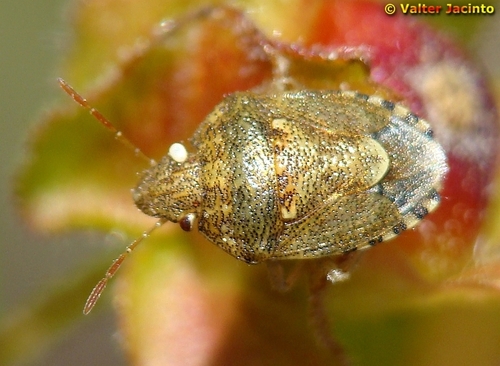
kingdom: Animalia
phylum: Arthropoda
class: Insecta
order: Hemiptera
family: Pentatomidae
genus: Staria
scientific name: Staria lunata
